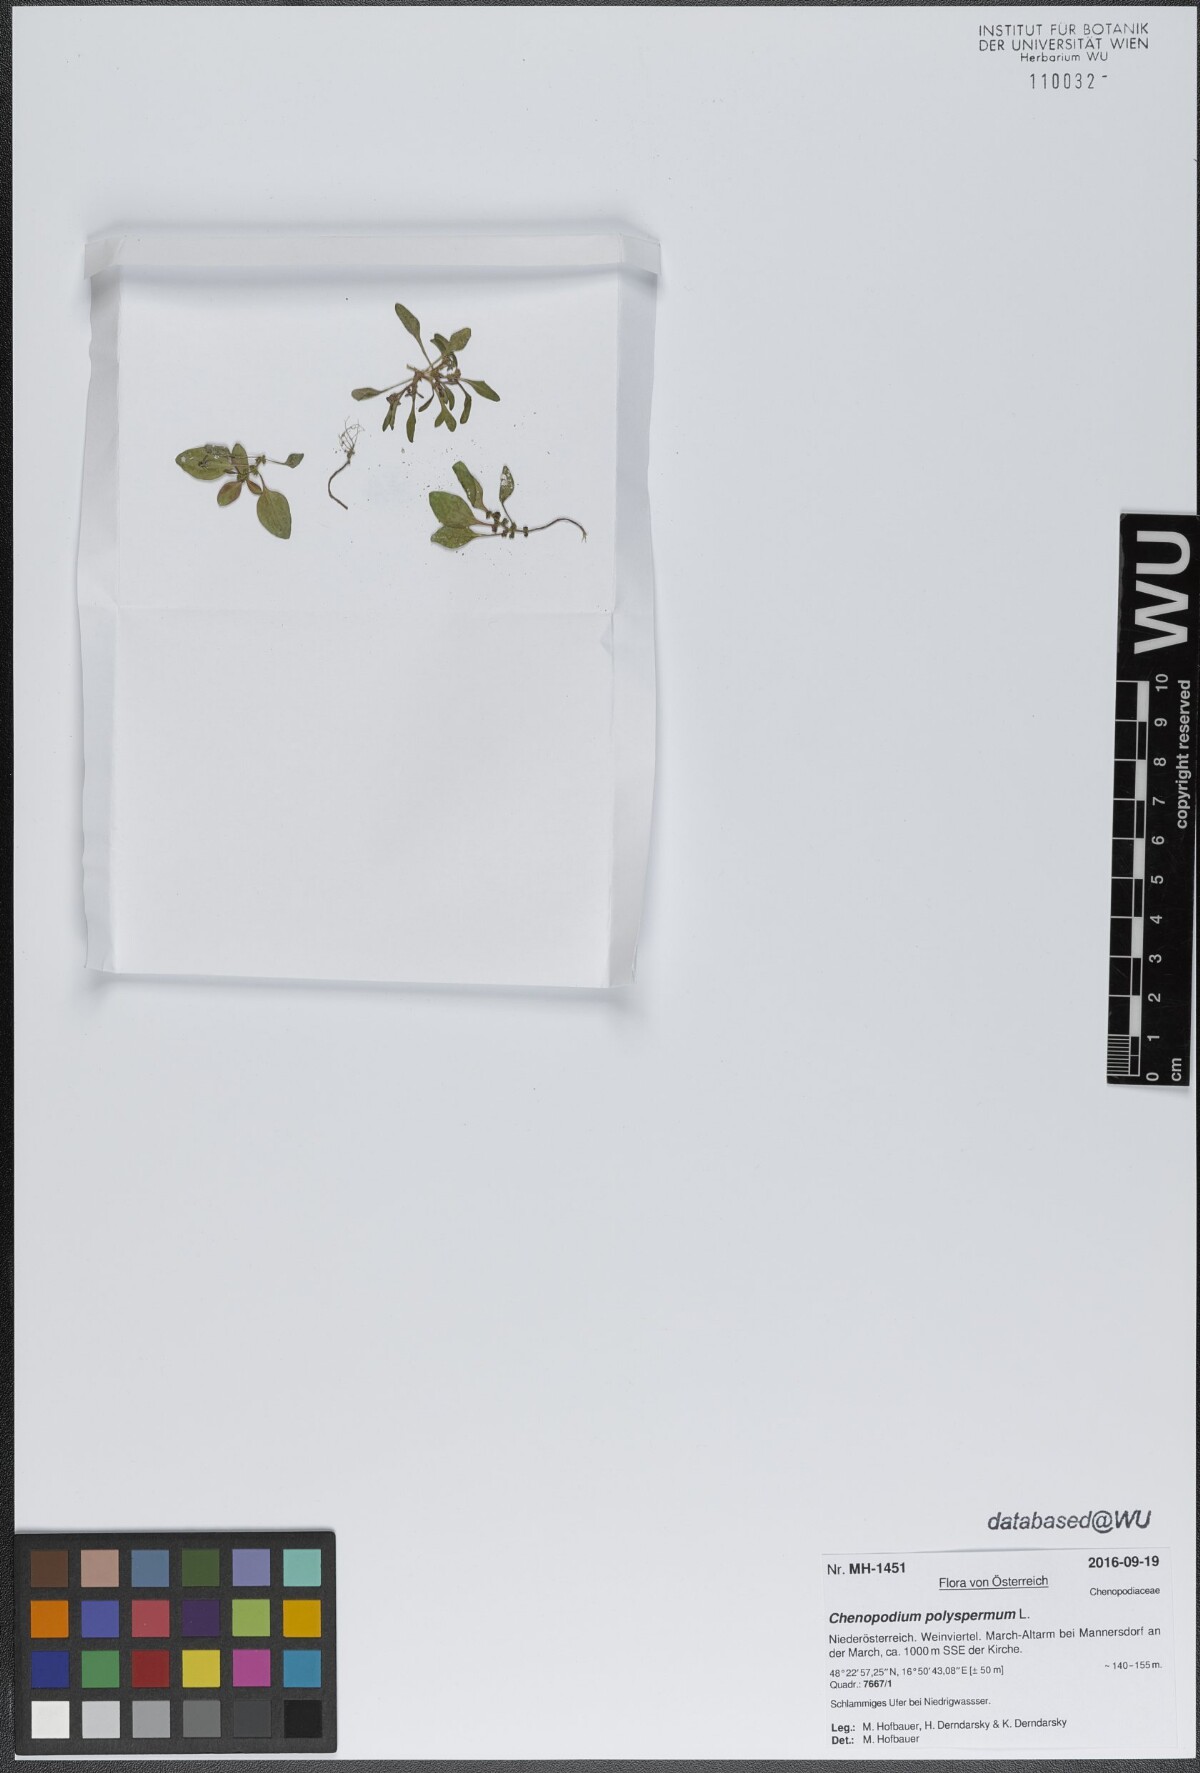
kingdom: Plantae
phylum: Tracheophyta
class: Magnoliopsida
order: Caryophyllales
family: Amaranthaceae
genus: Lipandra
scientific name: Lipandra polysperma
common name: Many-seed goosefoot
